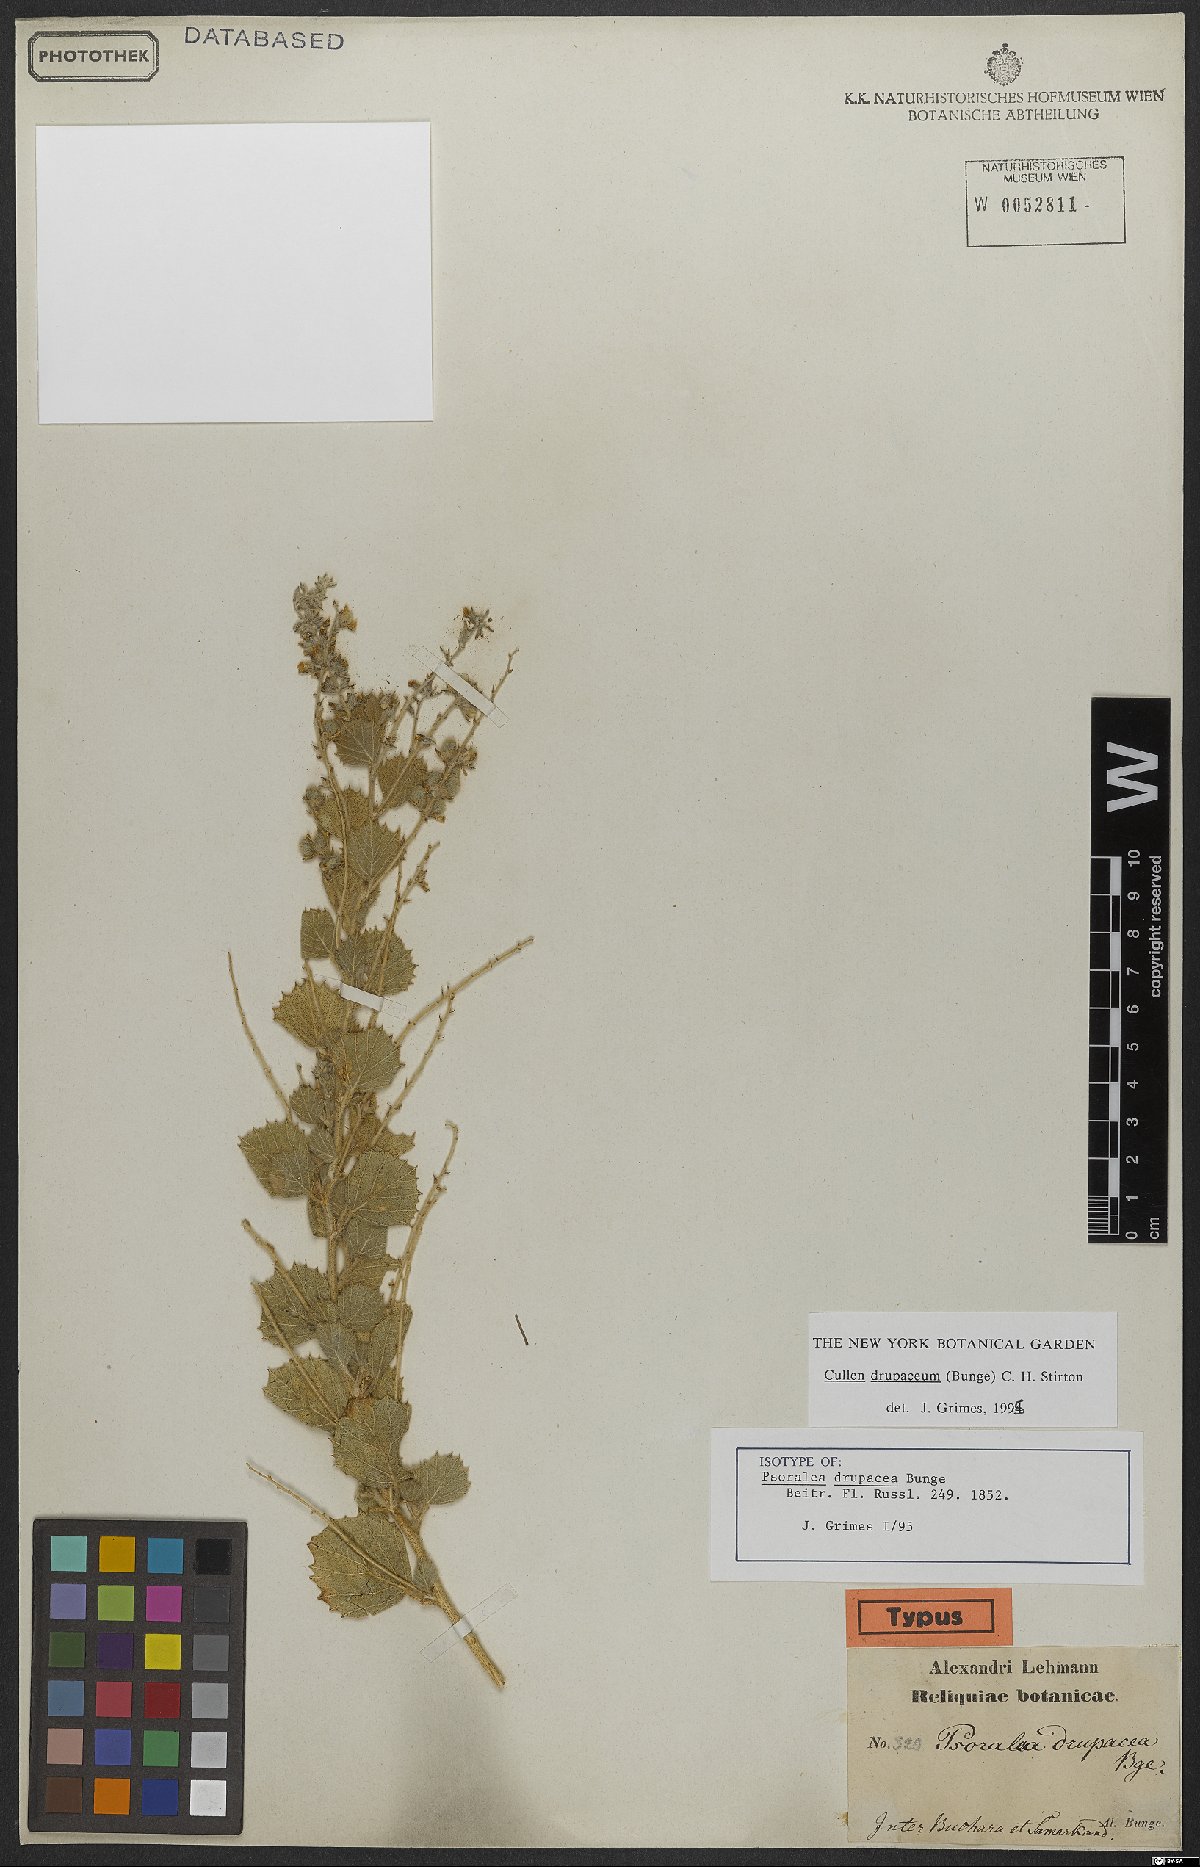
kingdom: Plantae
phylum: Tracheophyta
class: Magnoliopsida
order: Fabales
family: Fabaceae
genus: Cullen
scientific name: Cullen drupaceum
